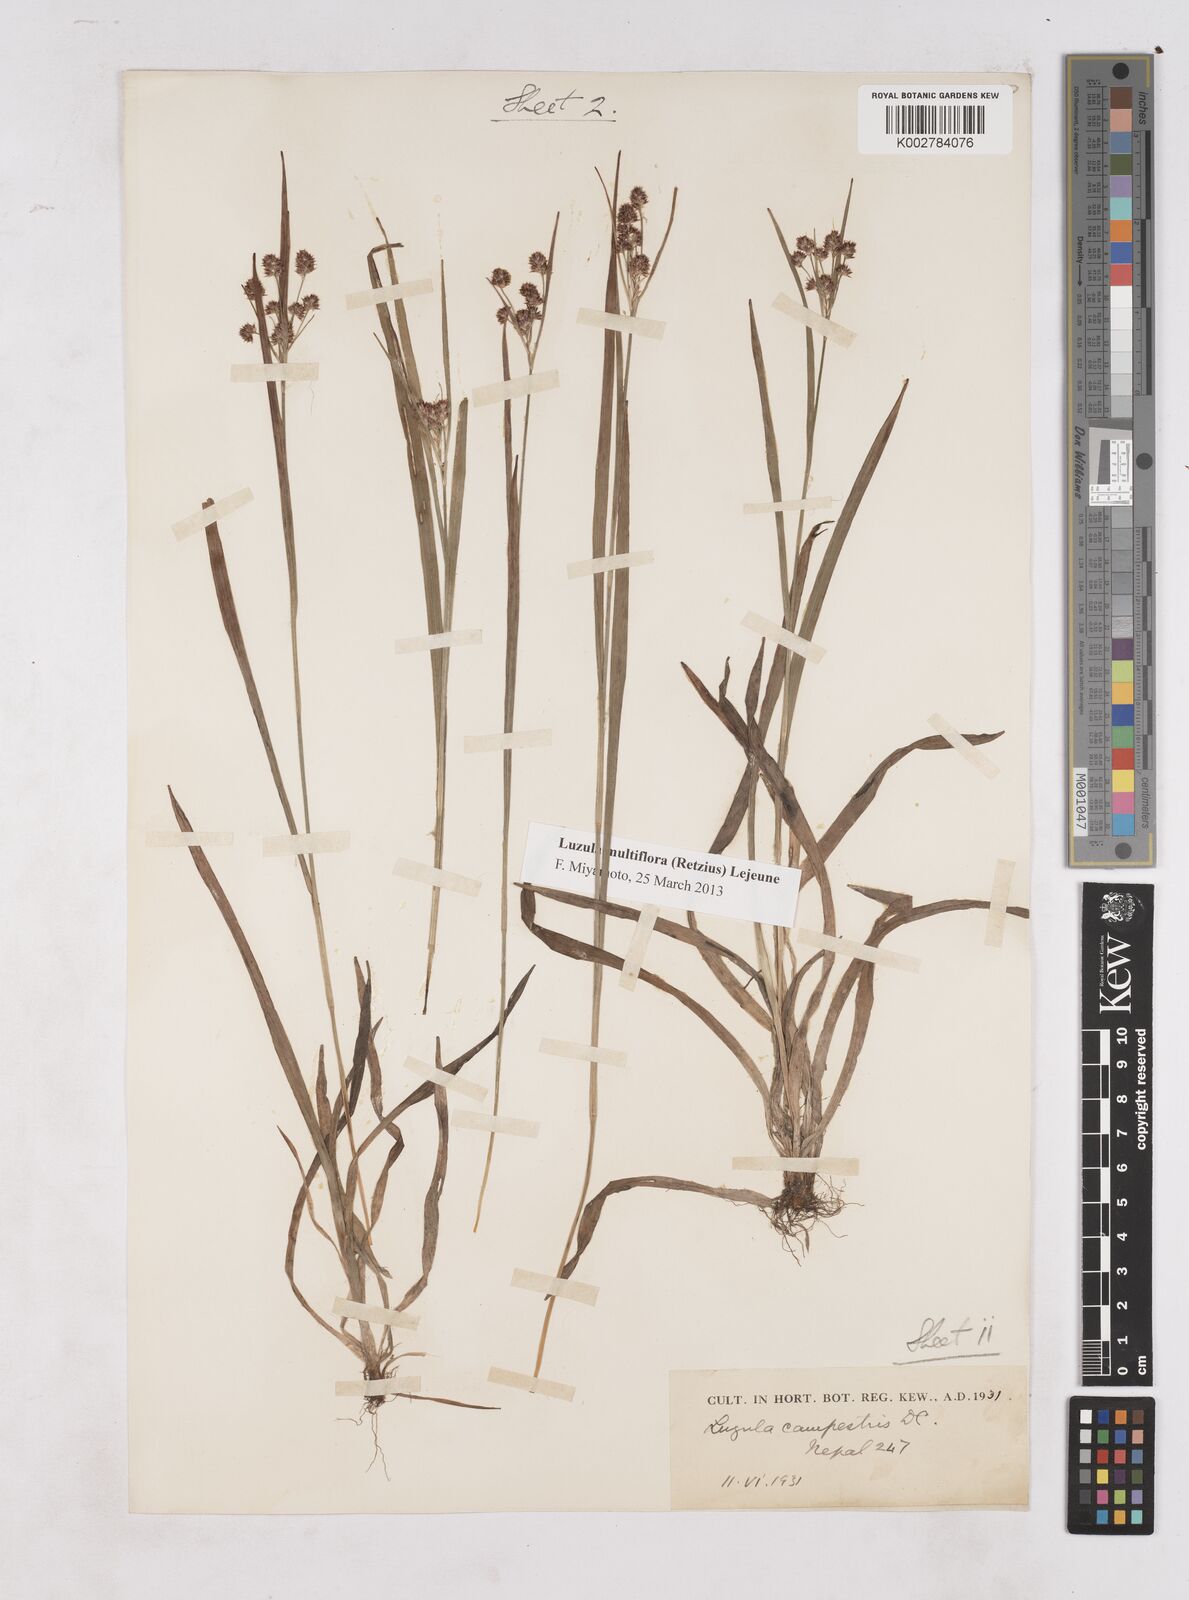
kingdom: Plantae
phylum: Tracheophyta
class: Liliopsida
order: Poales
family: Juncaceae
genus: Luzula
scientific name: Luzula campestris
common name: Field wood-rush
